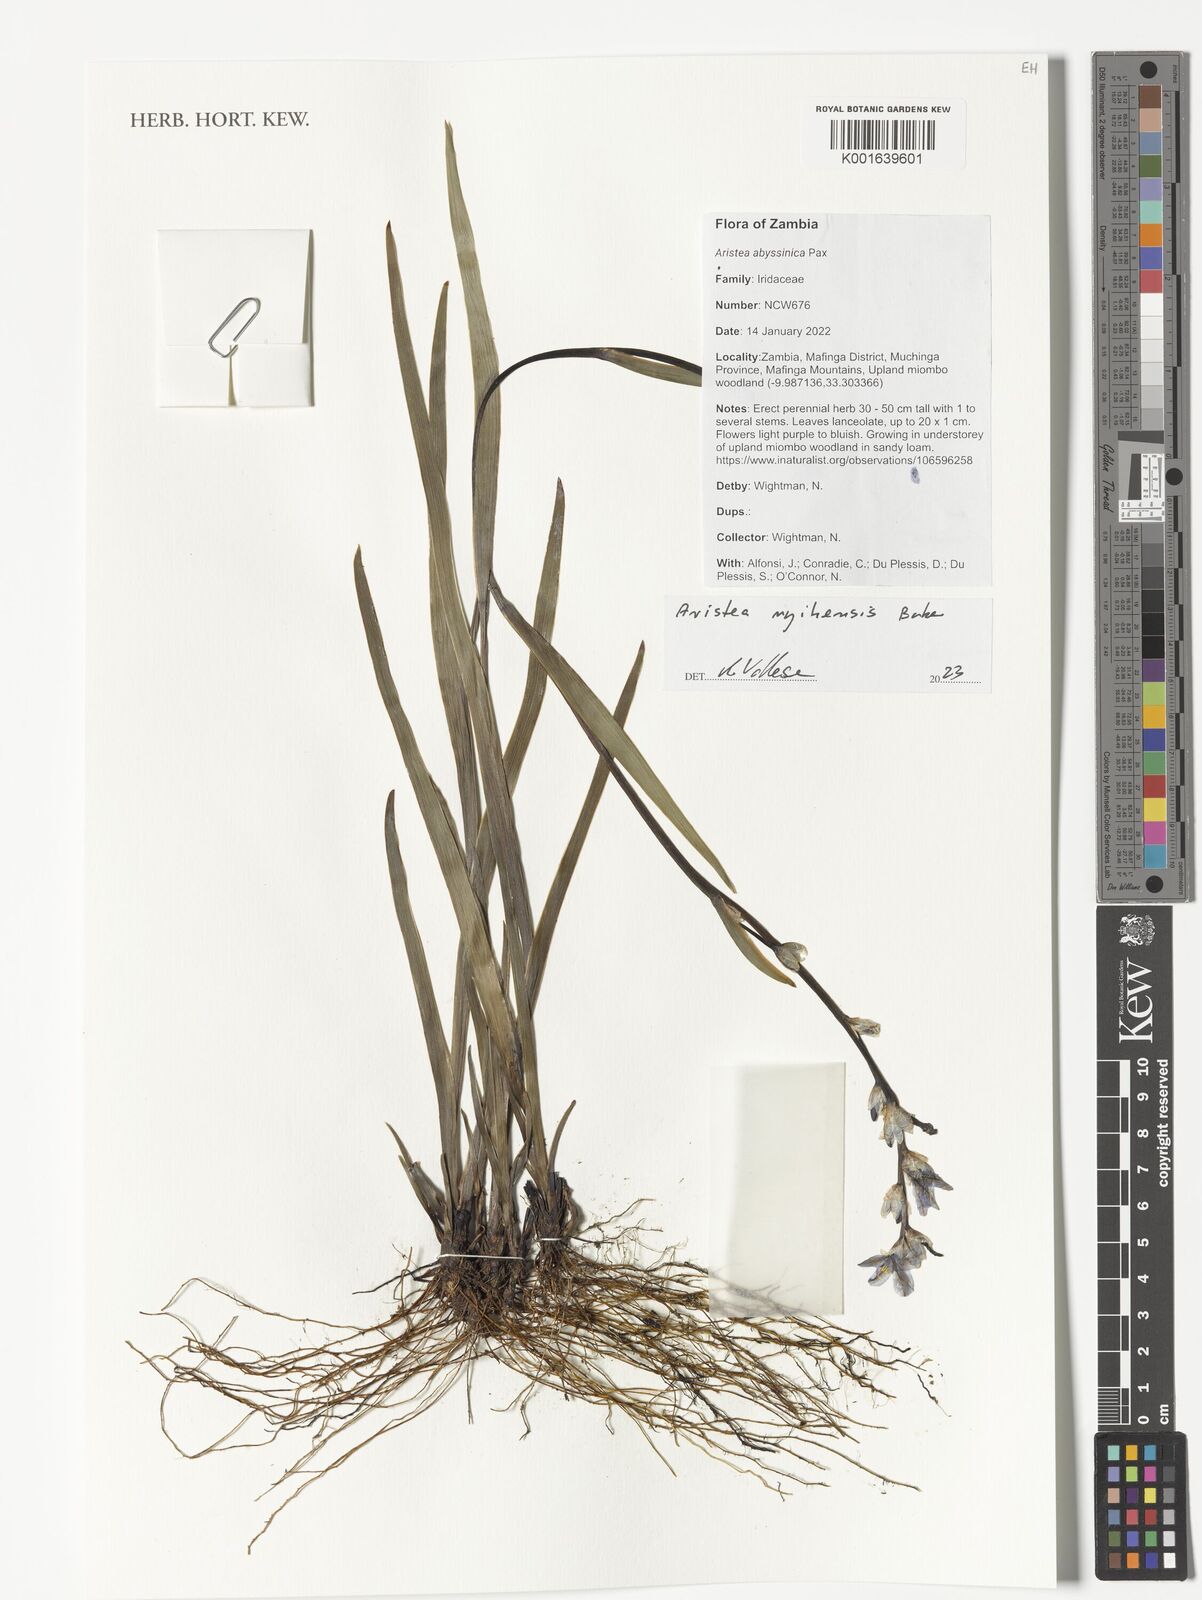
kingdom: Plantae
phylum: Tracheophyta
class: Liliopsida
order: Asparagales
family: Iridaceae
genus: Aristea
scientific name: Aristea nyikensis
